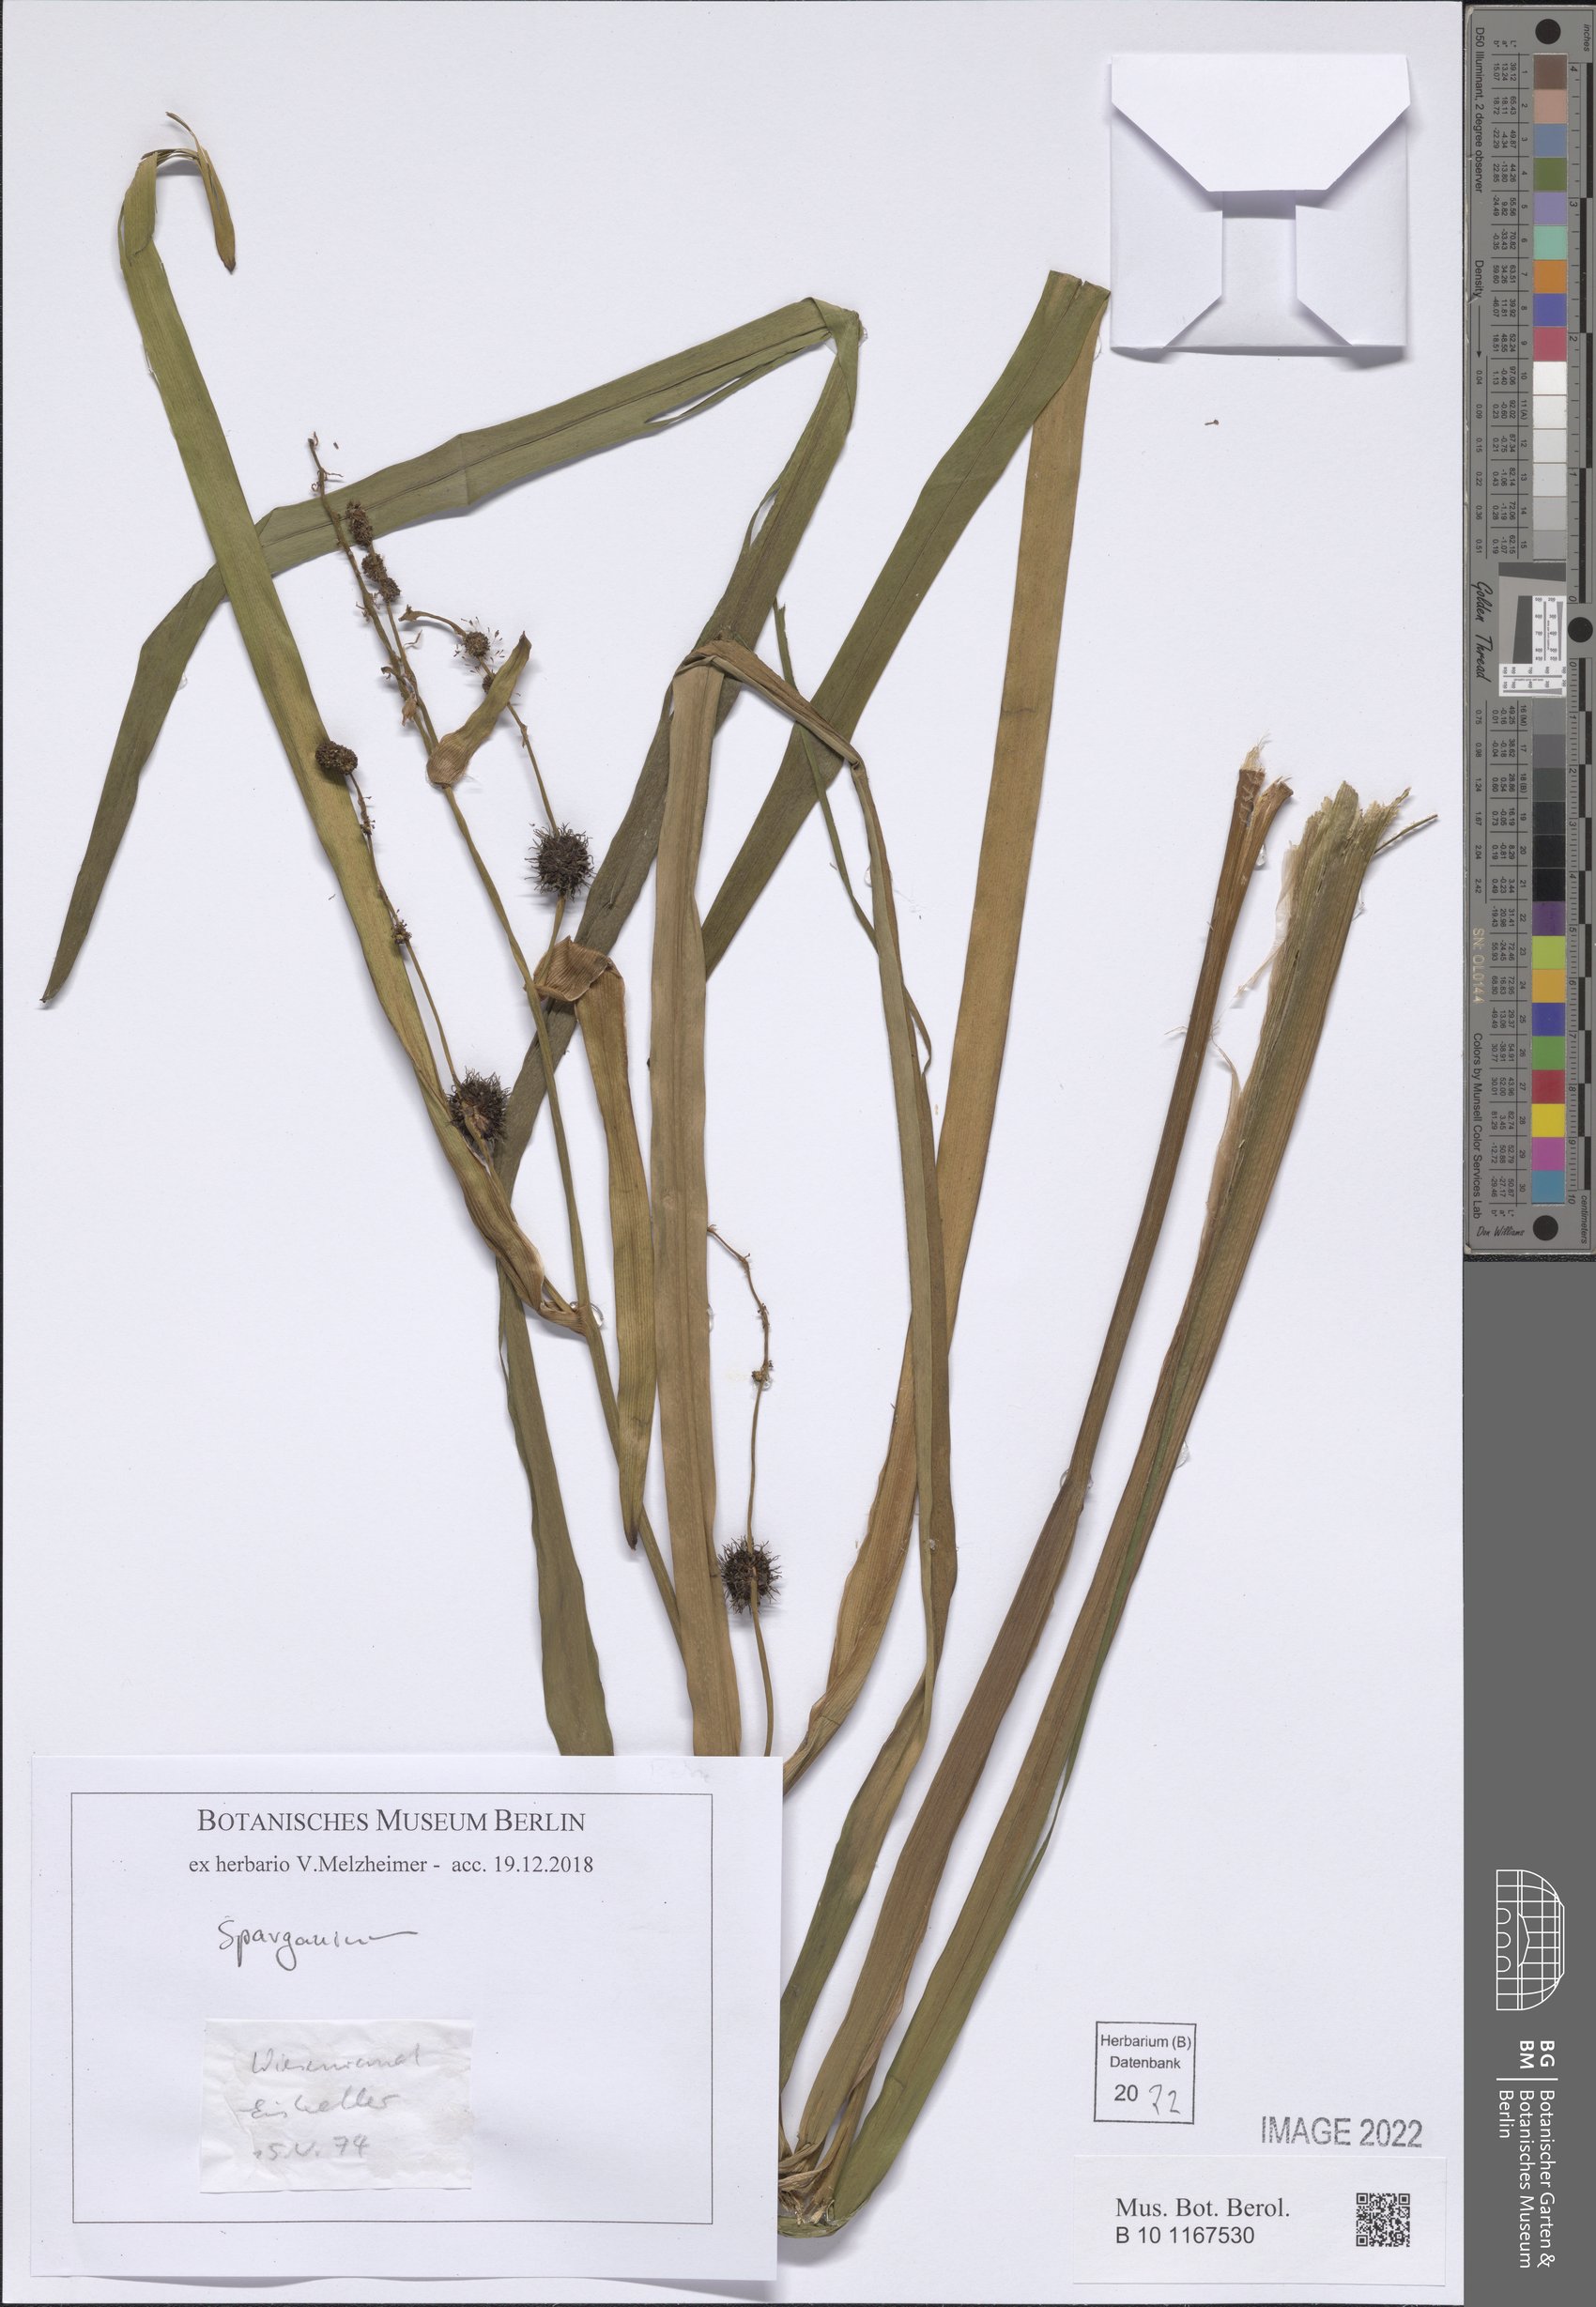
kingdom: Plantae
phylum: Tracheophyta
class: Liliopsida
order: Poales
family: Typhaceae
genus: Sparganium
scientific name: Sparganium
